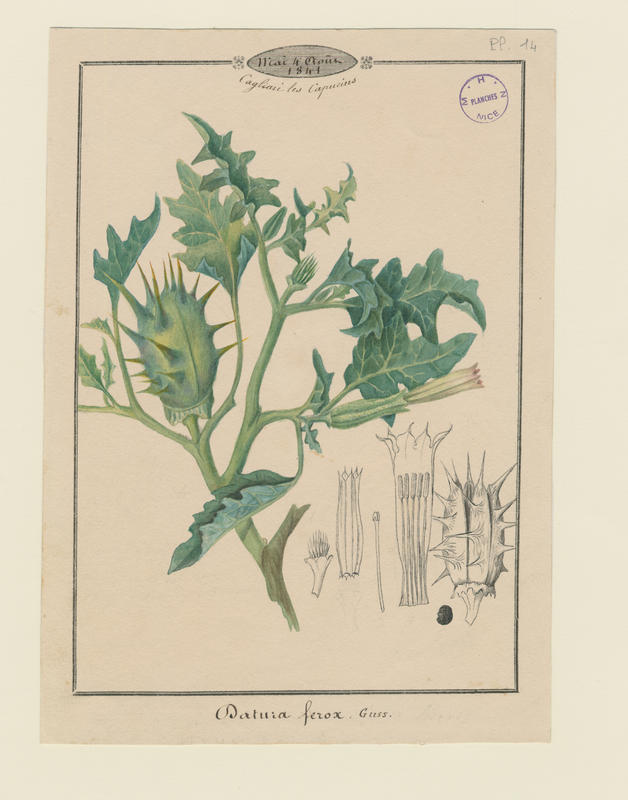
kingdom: Plantae
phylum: Tracheophyta
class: Magnoliopsida
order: Solanales
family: Solanaceae
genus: Datura
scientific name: Datura ferox
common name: Angel's-trumpets
